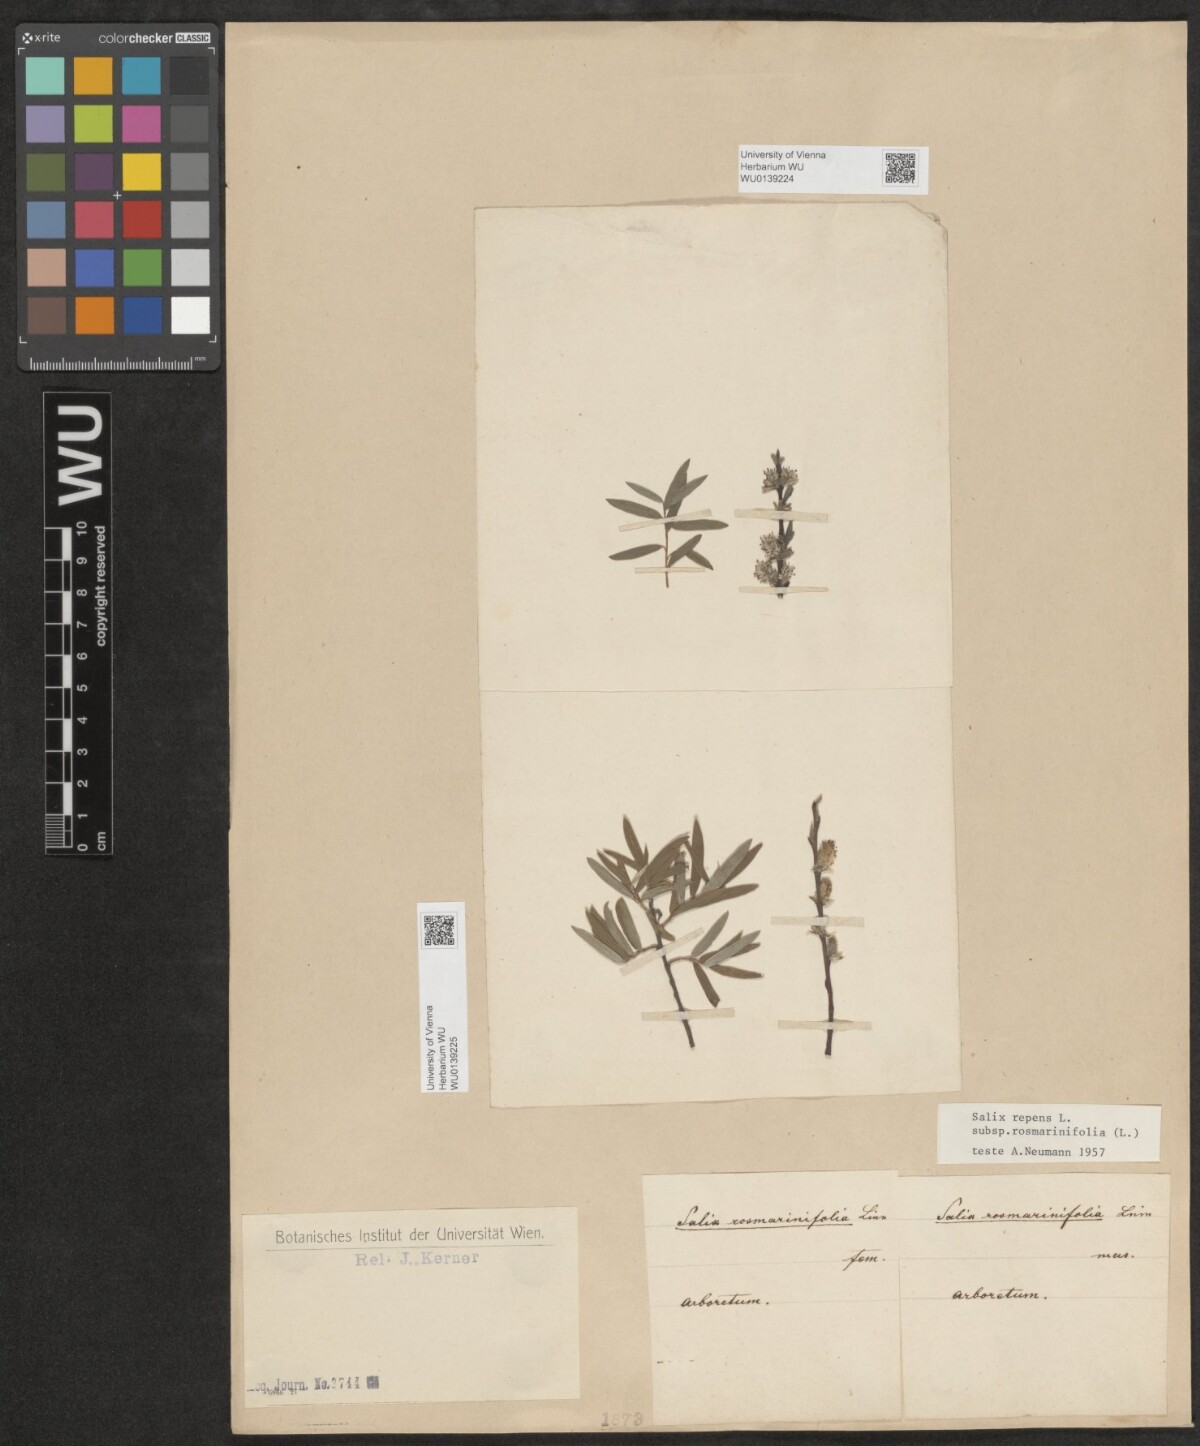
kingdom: Plantae
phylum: Tracheophyta
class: Magnoliopsida
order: Malpighiales
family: Salicaceae
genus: Salix
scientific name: Salix repens
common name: Creeping willow
